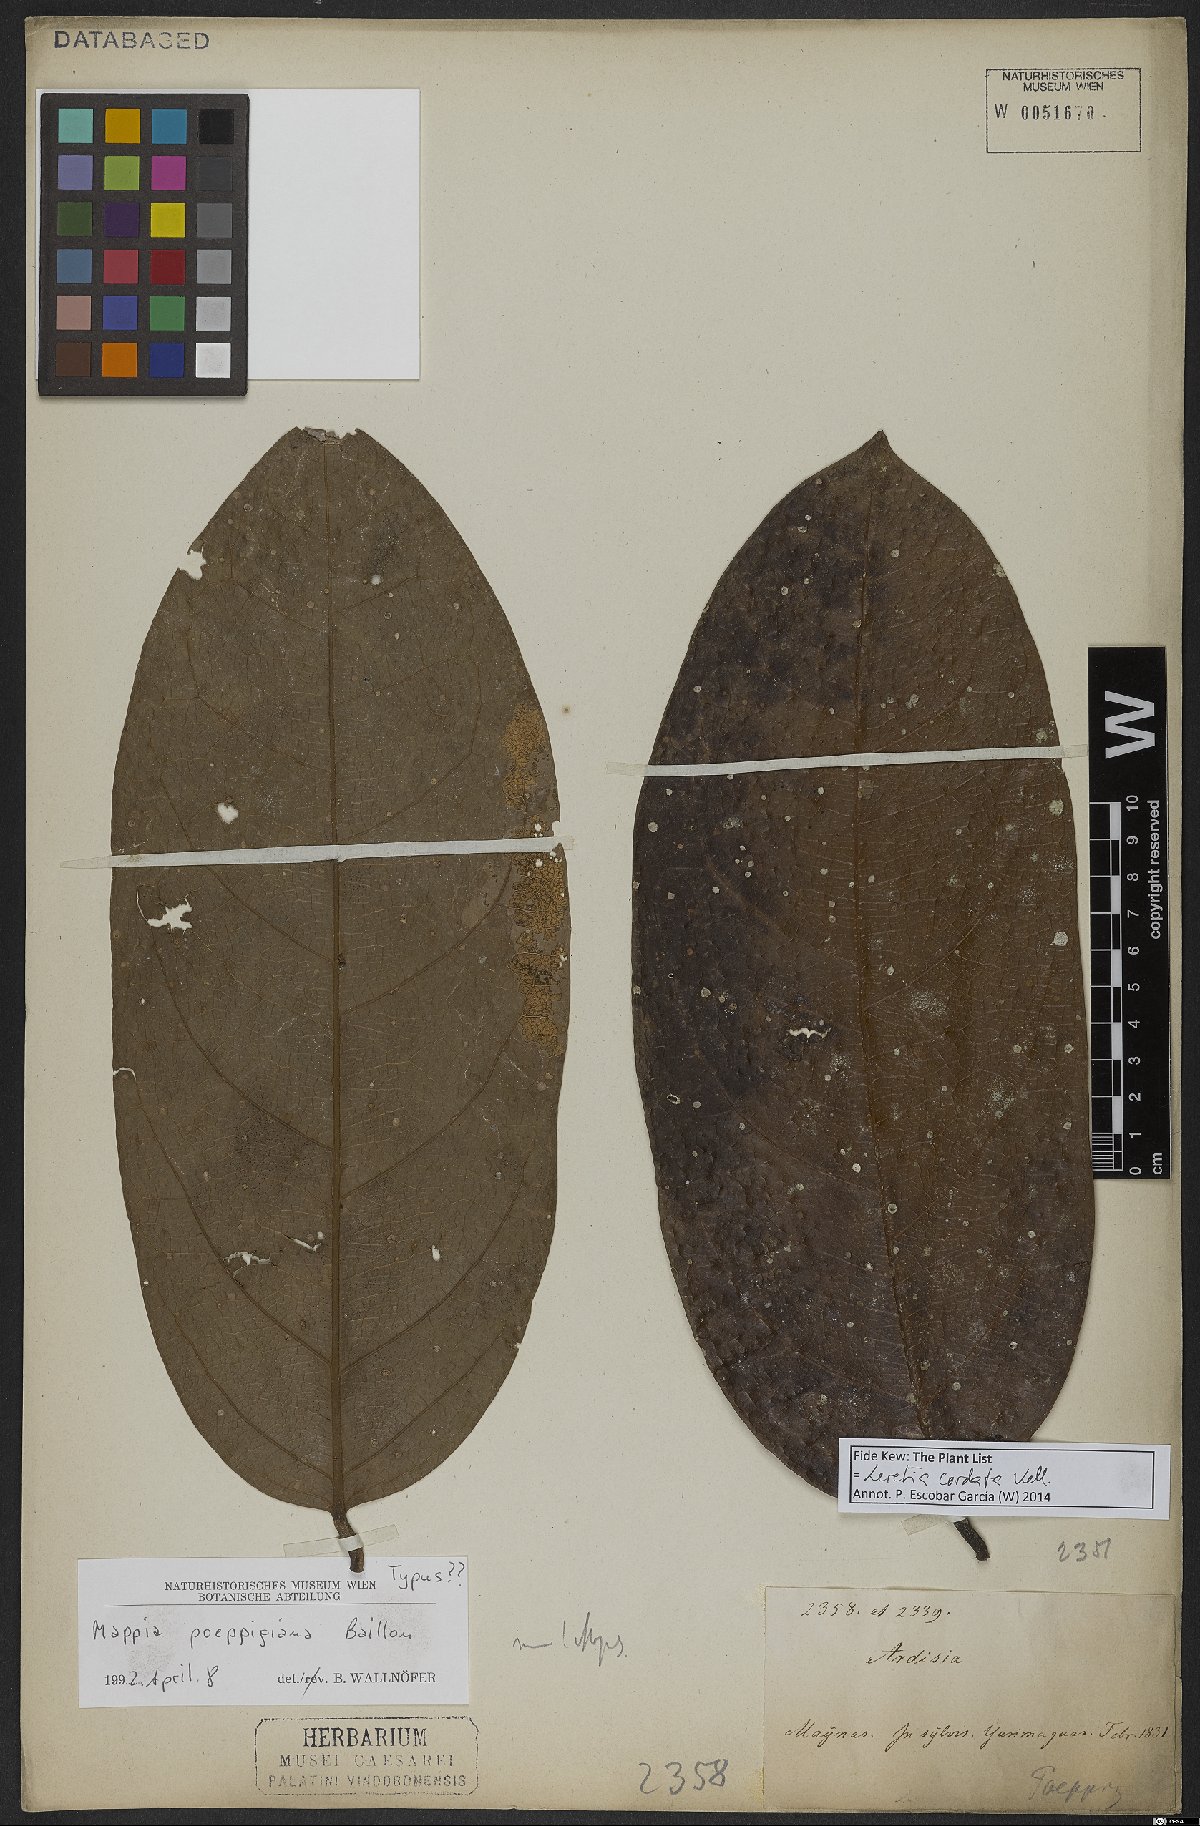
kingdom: Plantae
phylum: Tracheophyta
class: Magnoliopsida
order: Icacinales
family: Icacinaceae
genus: Leretia
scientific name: Leretia cordata
